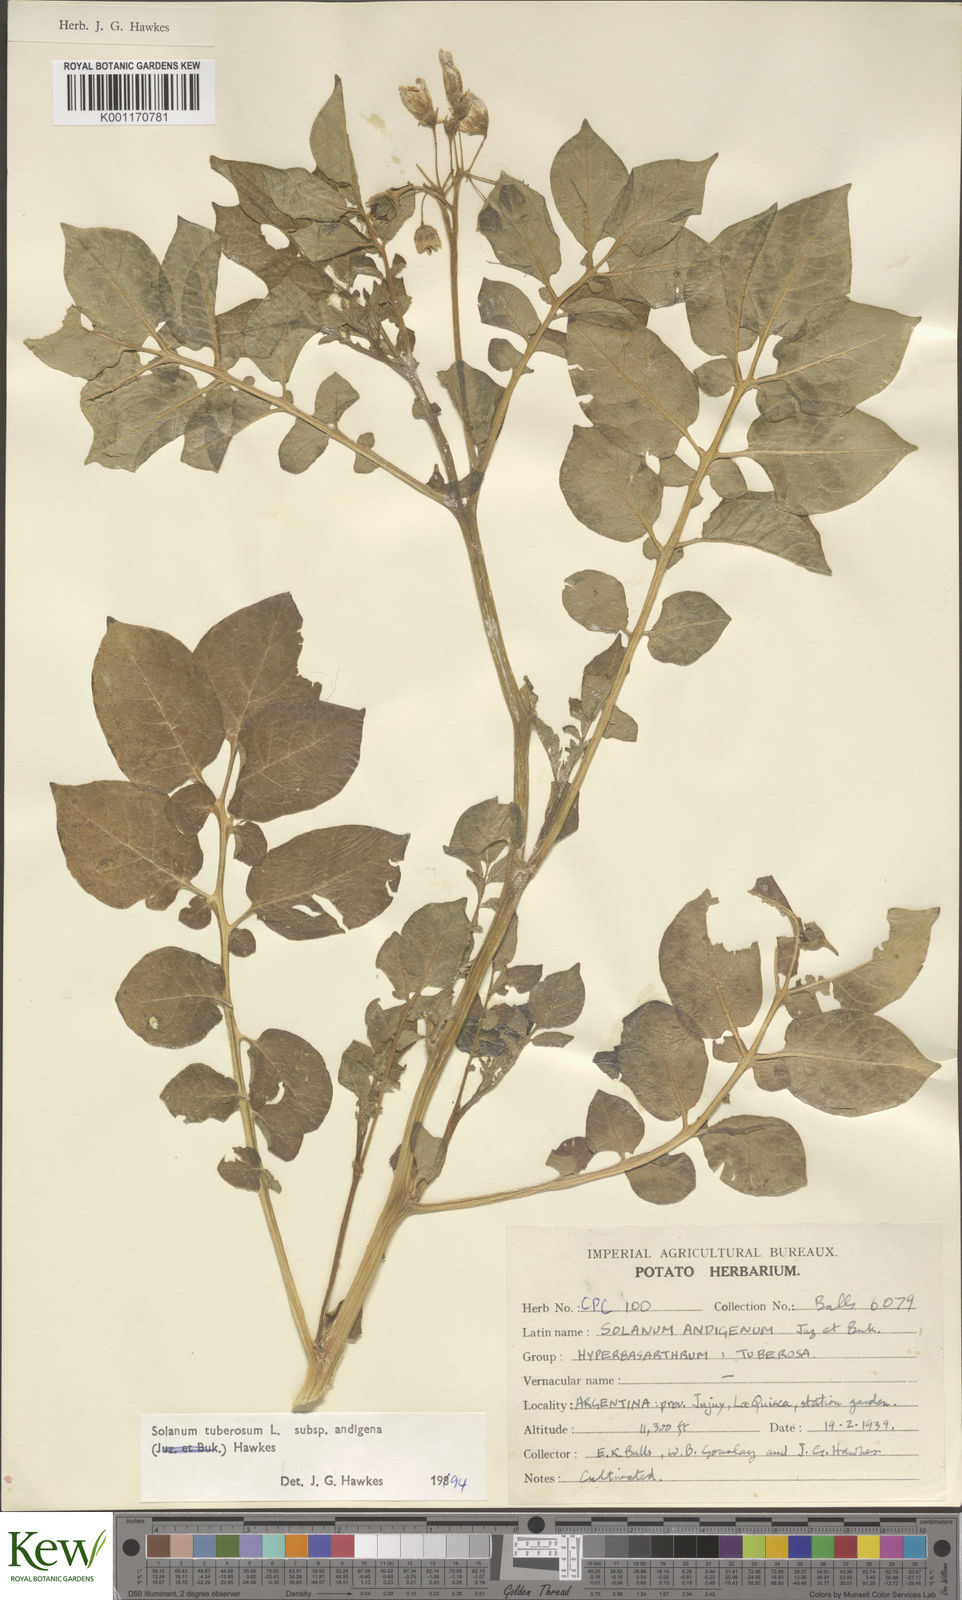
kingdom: Plantae
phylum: Tracheophyta
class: Magnoliopsida
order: Solanales
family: Solanaceae
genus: Solanum
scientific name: Solanum tuberosum
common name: Potato
